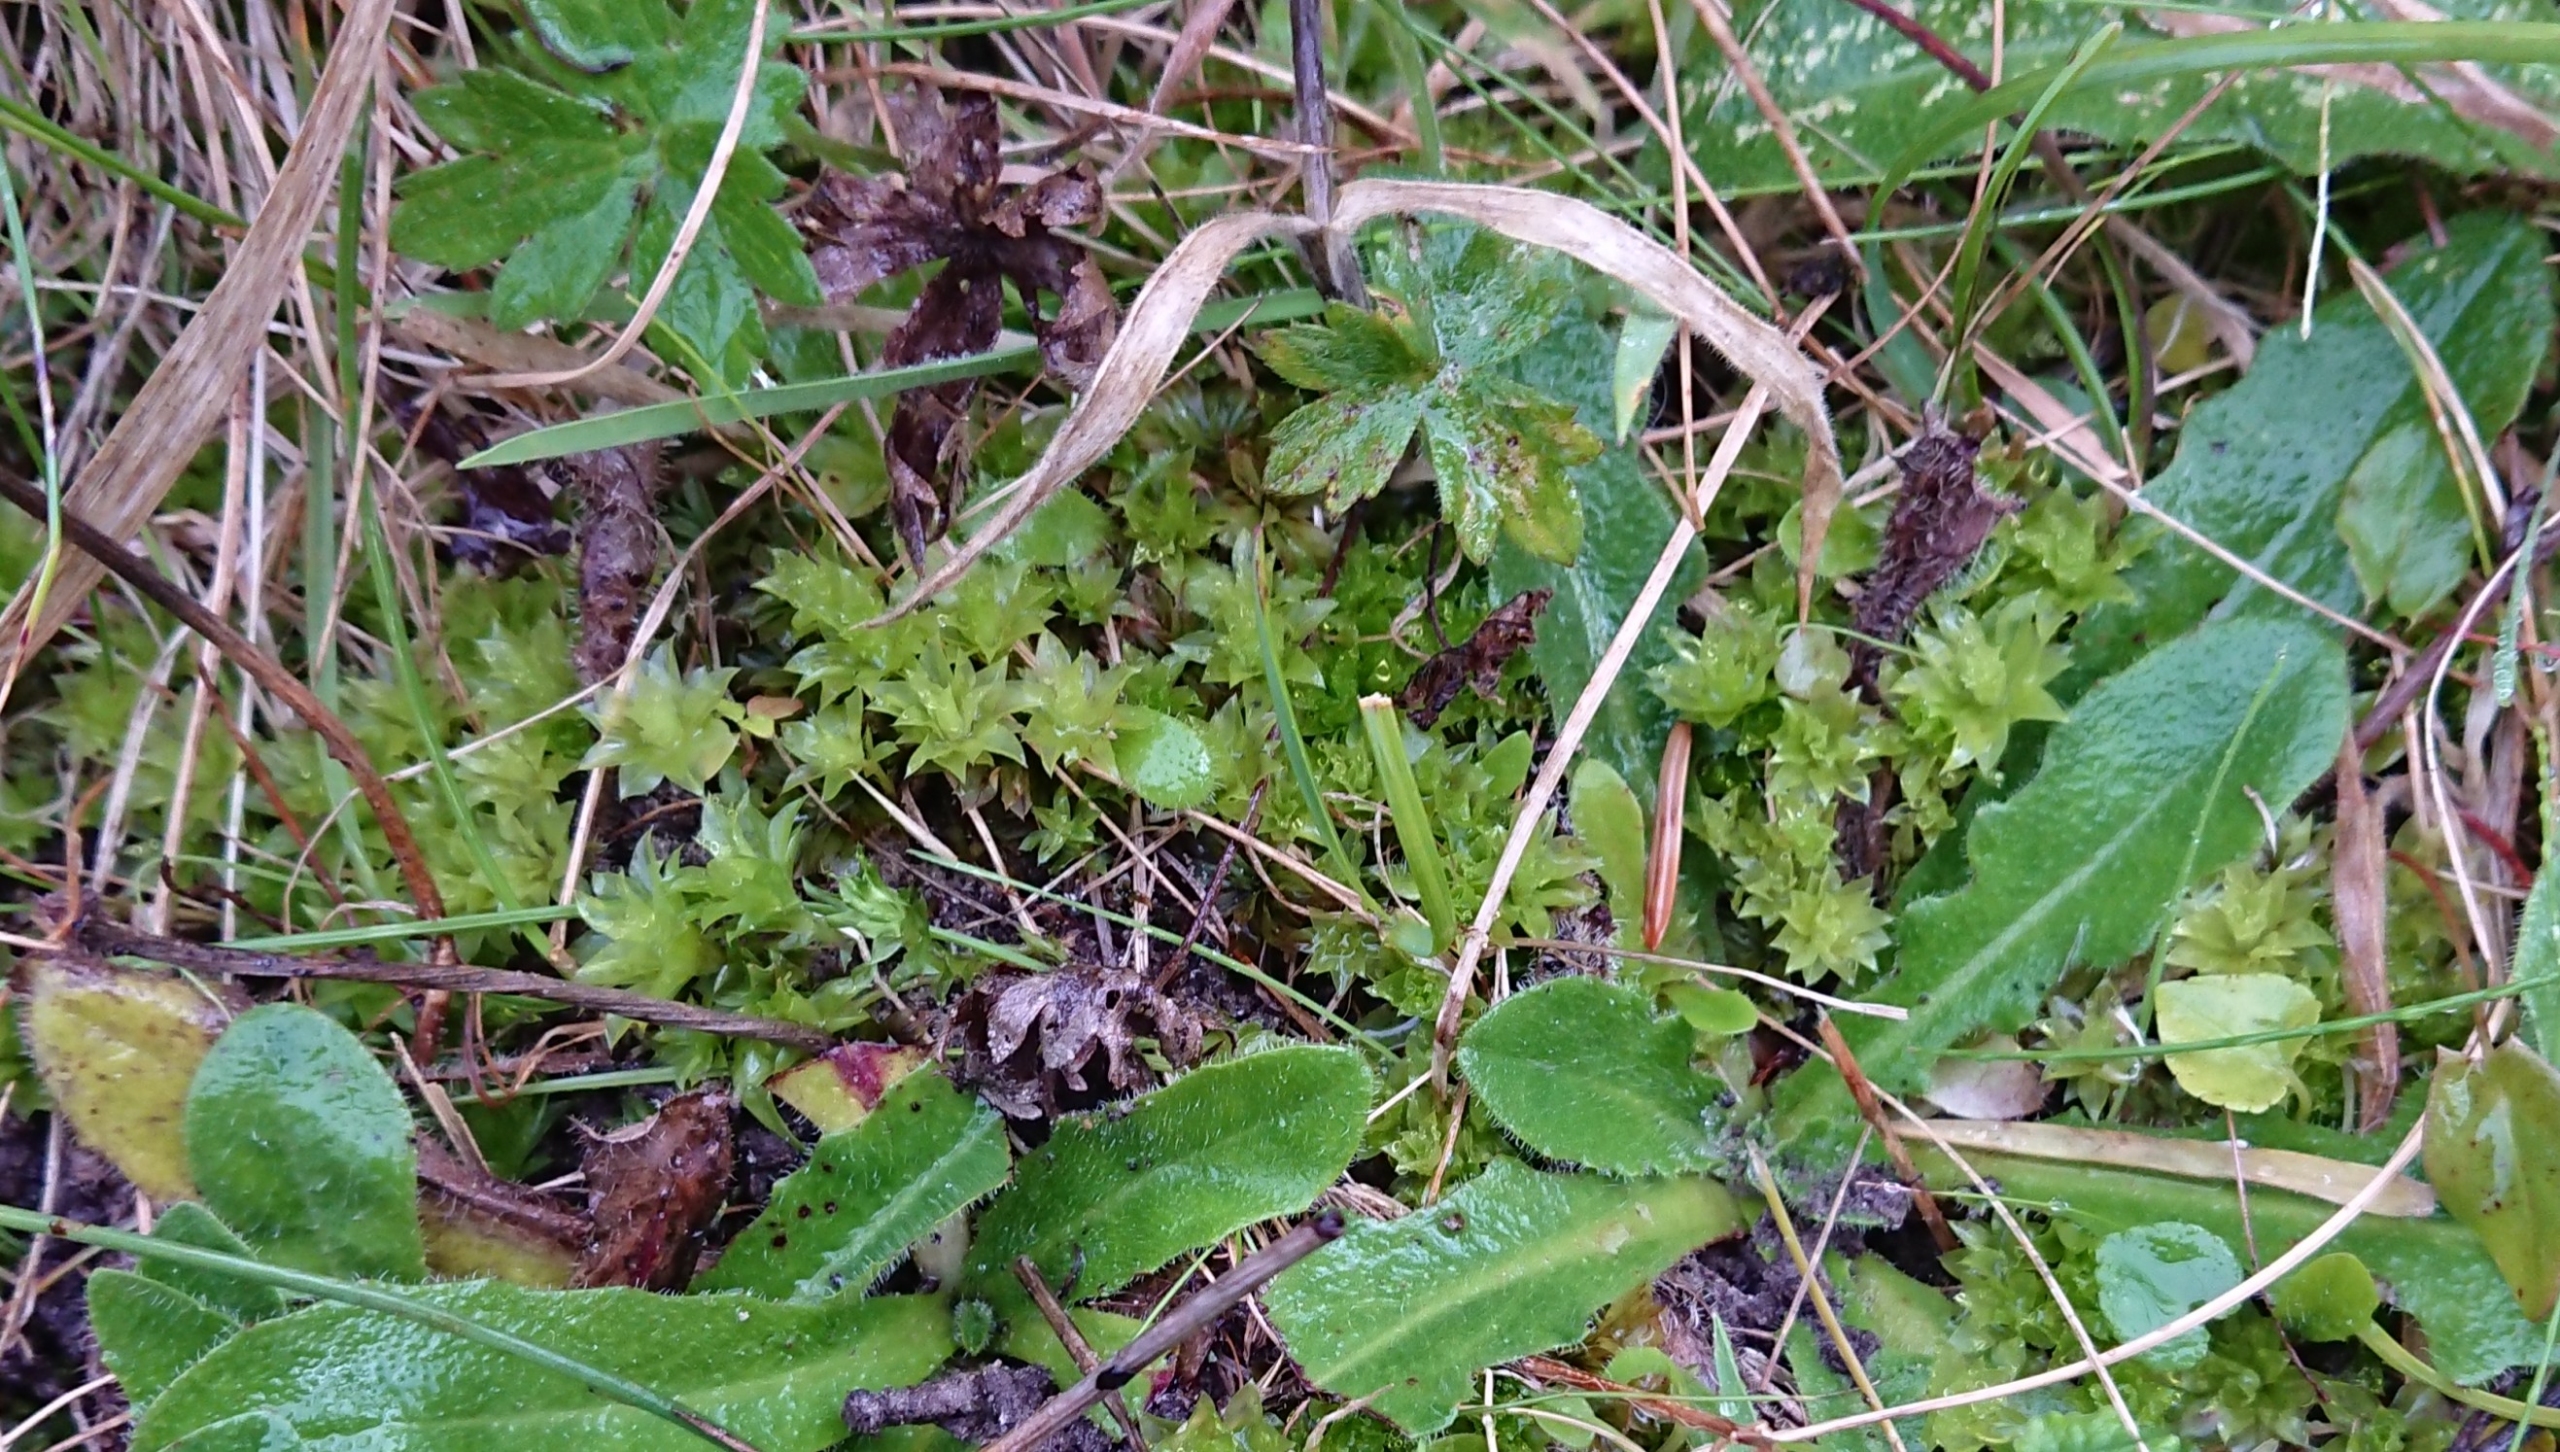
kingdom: Plantae
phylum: Bryophyta
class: Bryopsida
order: Bryales
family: Bryaceae
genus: Rhodobryum
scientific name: Rhodobryum roseum
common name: Stor rosetmos
